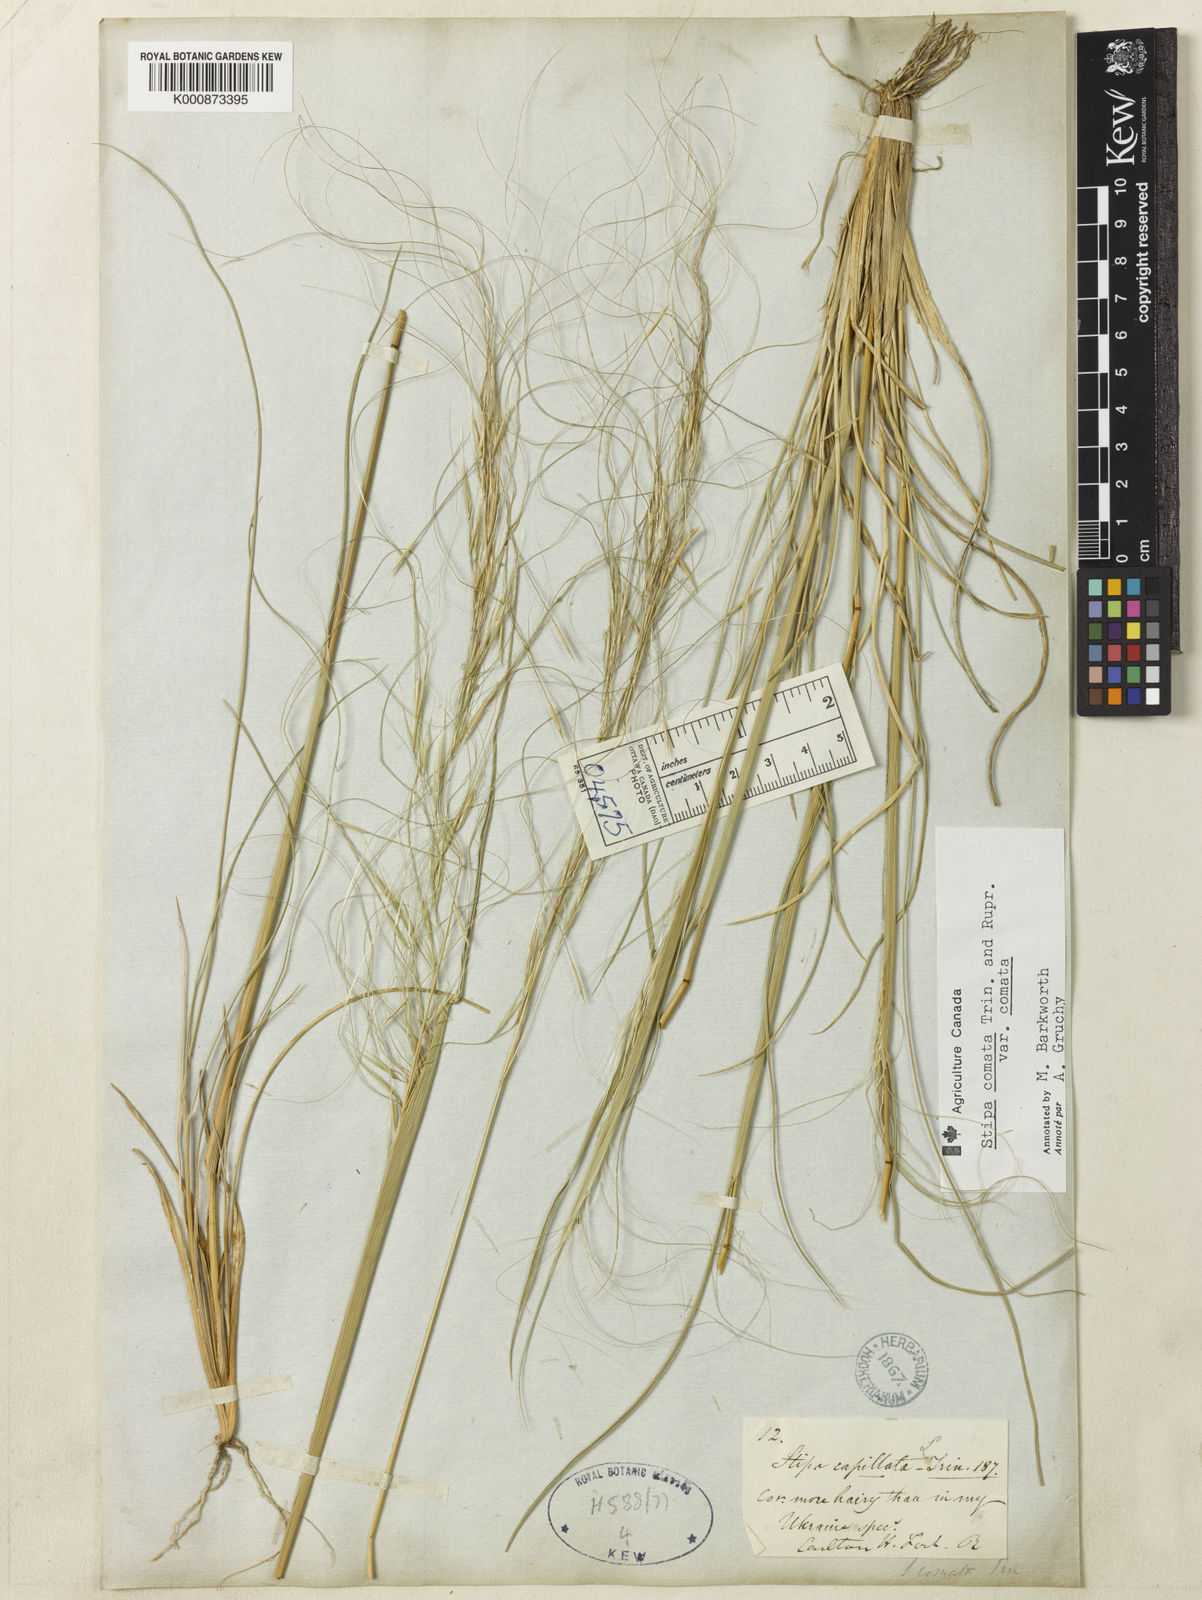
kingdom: Plantae
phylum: Tracheophyta
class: Liliopsida
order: Poales
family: Poaceae
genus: Hesperostipa
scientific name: Hesperostipa comata
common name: Needle-and-thread grass
